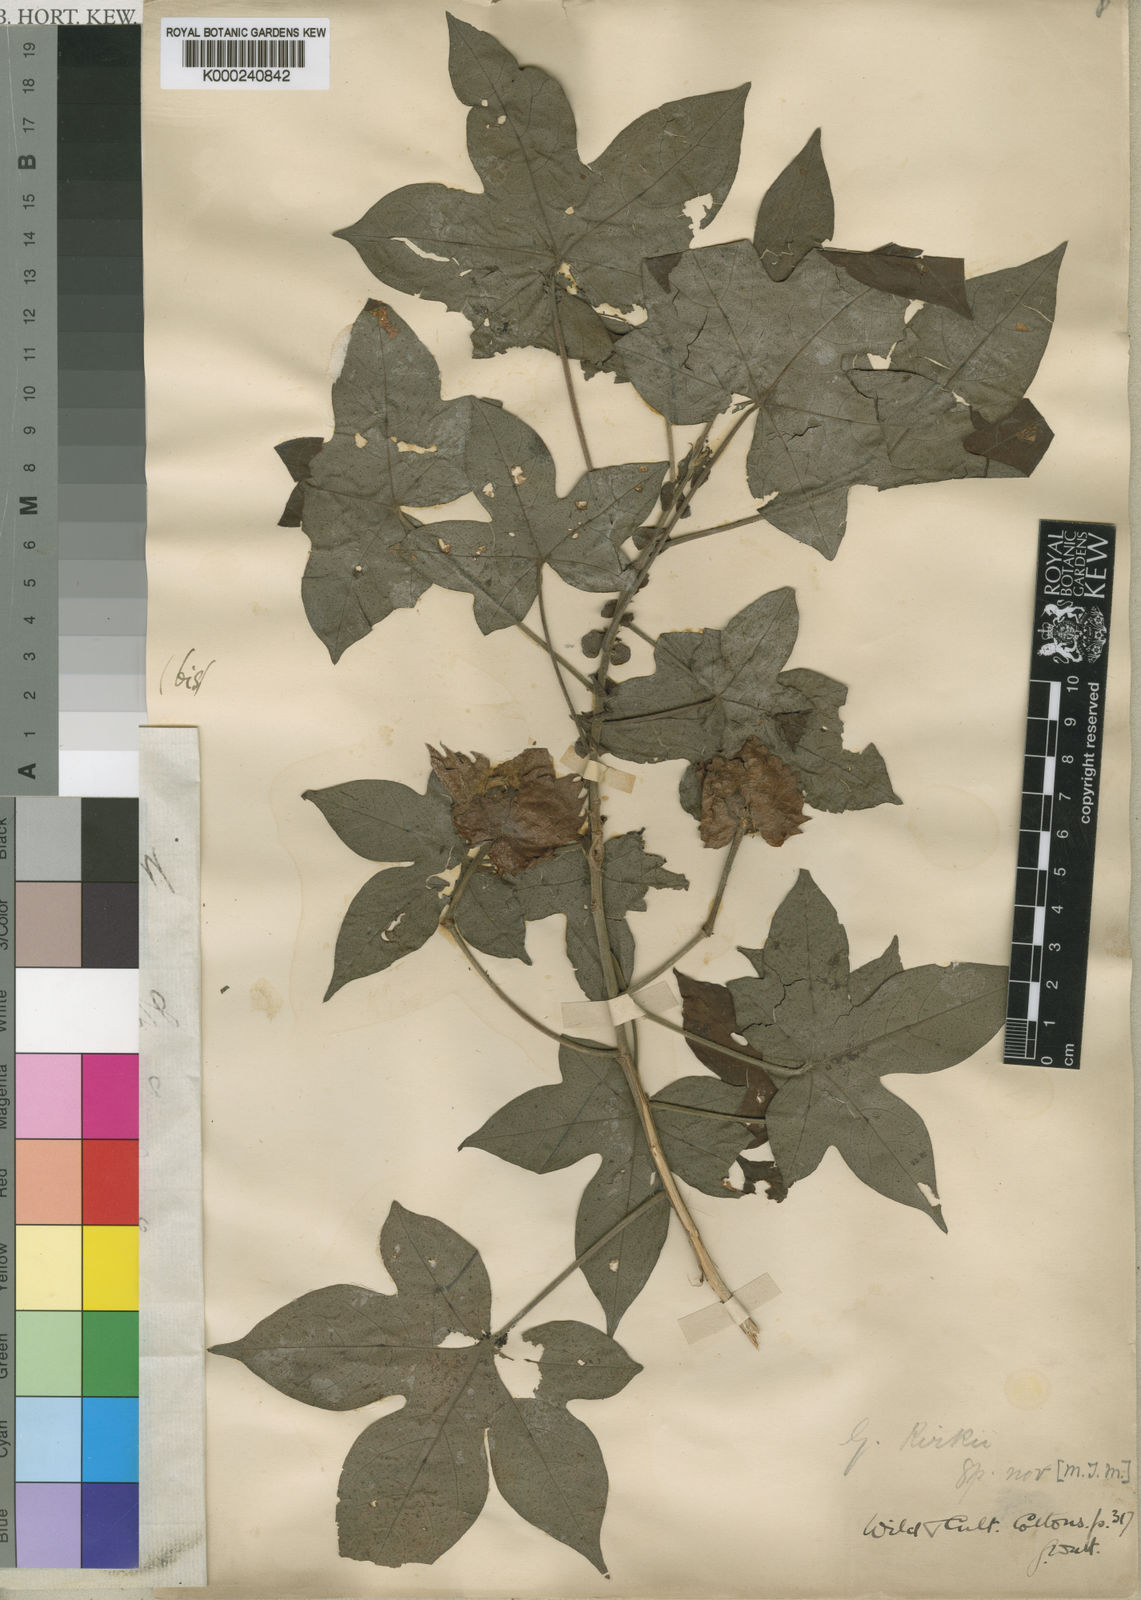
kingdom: Plantae
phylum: Tracheophyta
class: Magnoliopsida
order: Malvales
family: Malvaceae
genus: Gossypioides
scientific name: Gossypioides
